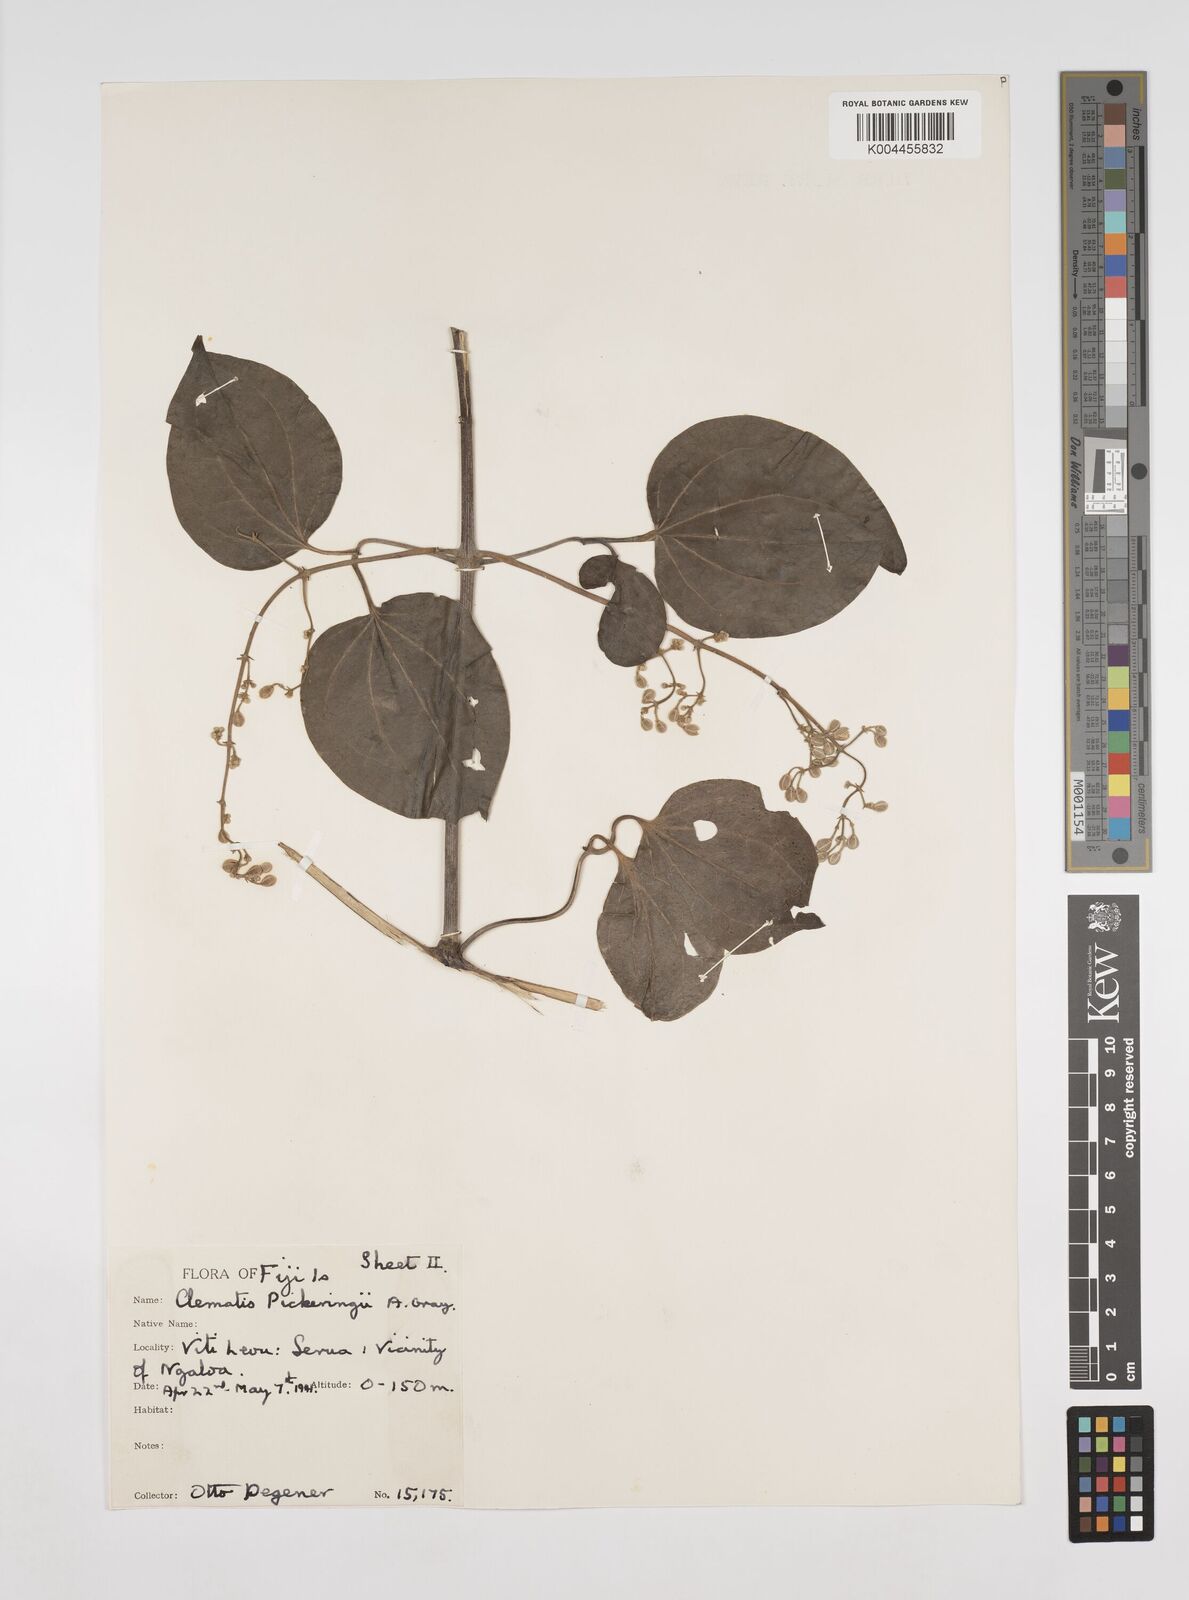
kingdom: Plantae
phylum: Tracheophyta
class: Magnoliopsida
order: Ranunculales
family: Ranunculaceae
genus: Clematis
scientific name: Clematis pickeringii
